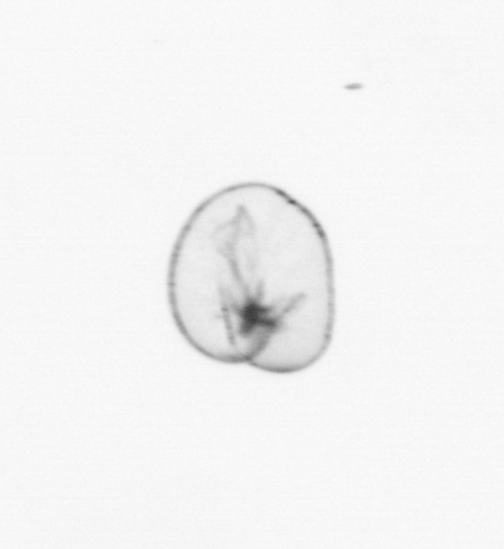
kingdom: Chromista
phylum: Myzozoa
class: Dinophyceae
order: Noctilucales
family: Noctilucaceae
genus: Noctiluca
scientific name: Noctiluca scintillans
